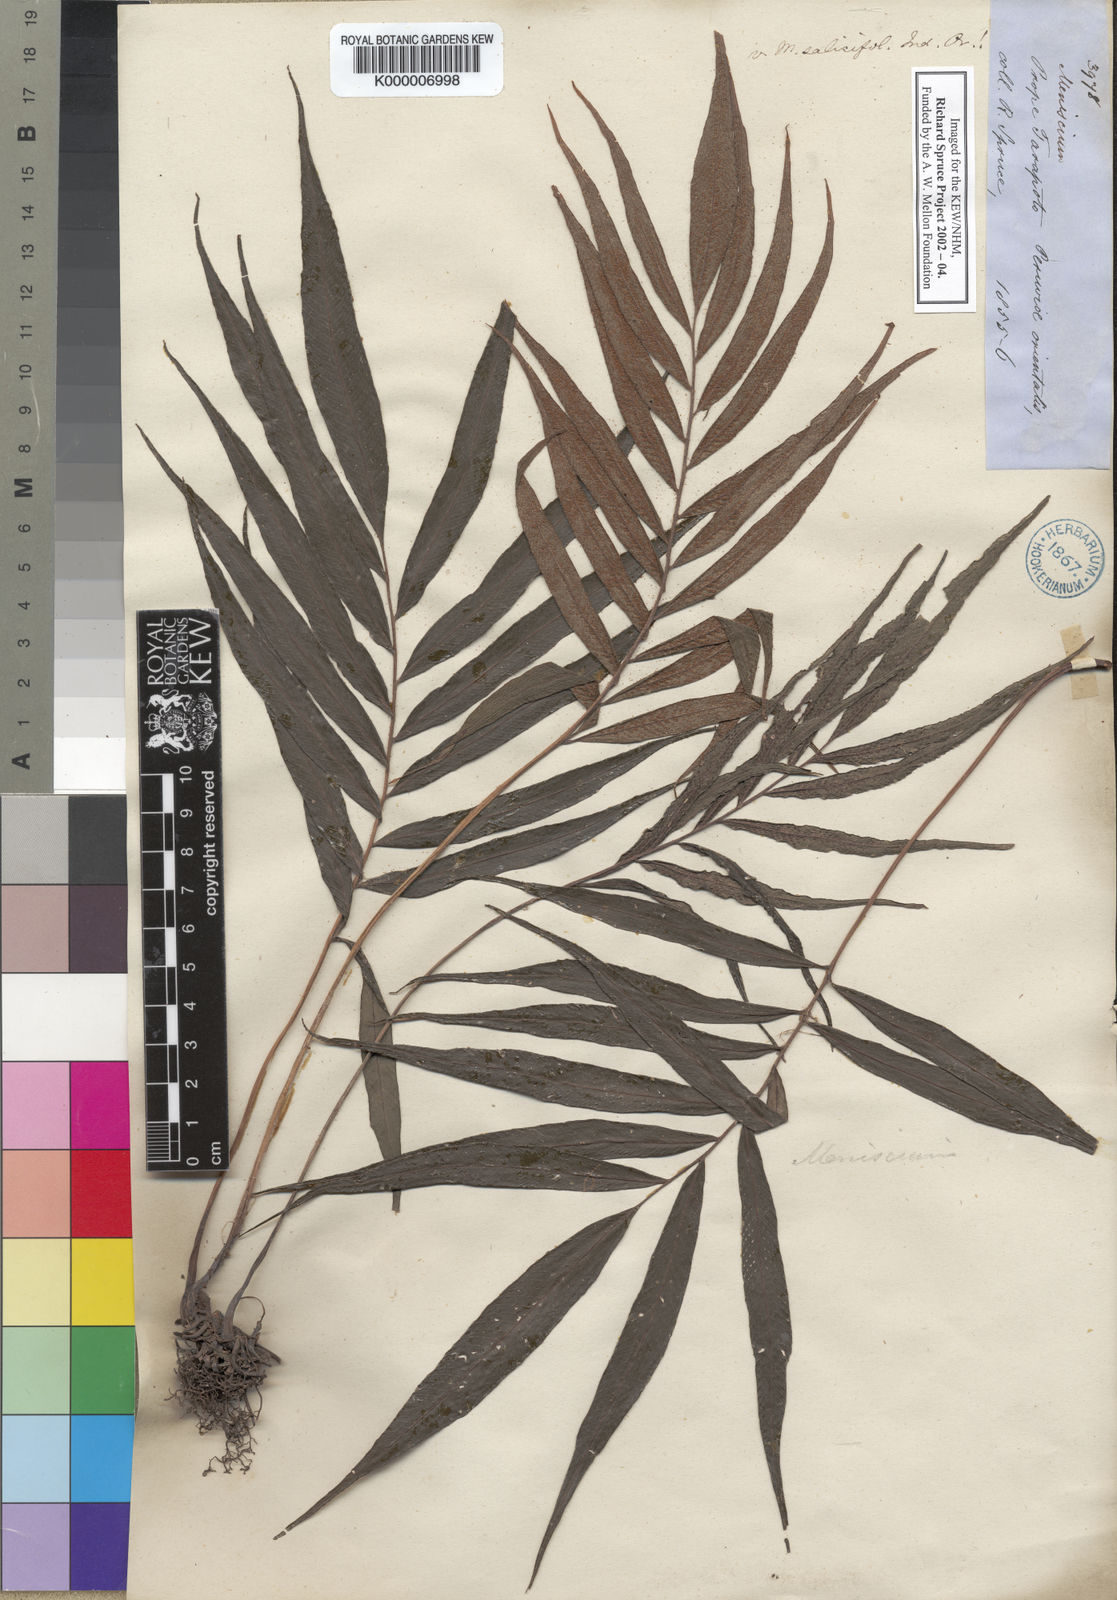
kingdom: Plantae
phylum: Tracheophyta
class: Polypodiopsida
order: Polypodiales
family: Thelypteridaceae
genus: Meniscium
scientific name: Meniscium angustifolium
